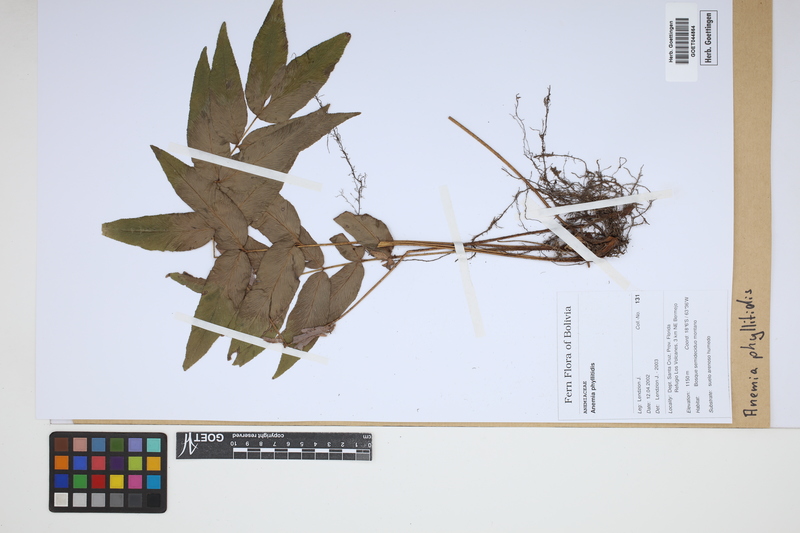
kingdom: Plantae
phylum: Tracheophyta
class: Polypodiopsida
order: Schizaeales
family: Anemiaceae
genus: Anemia
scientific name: Anemia phyllitidis
